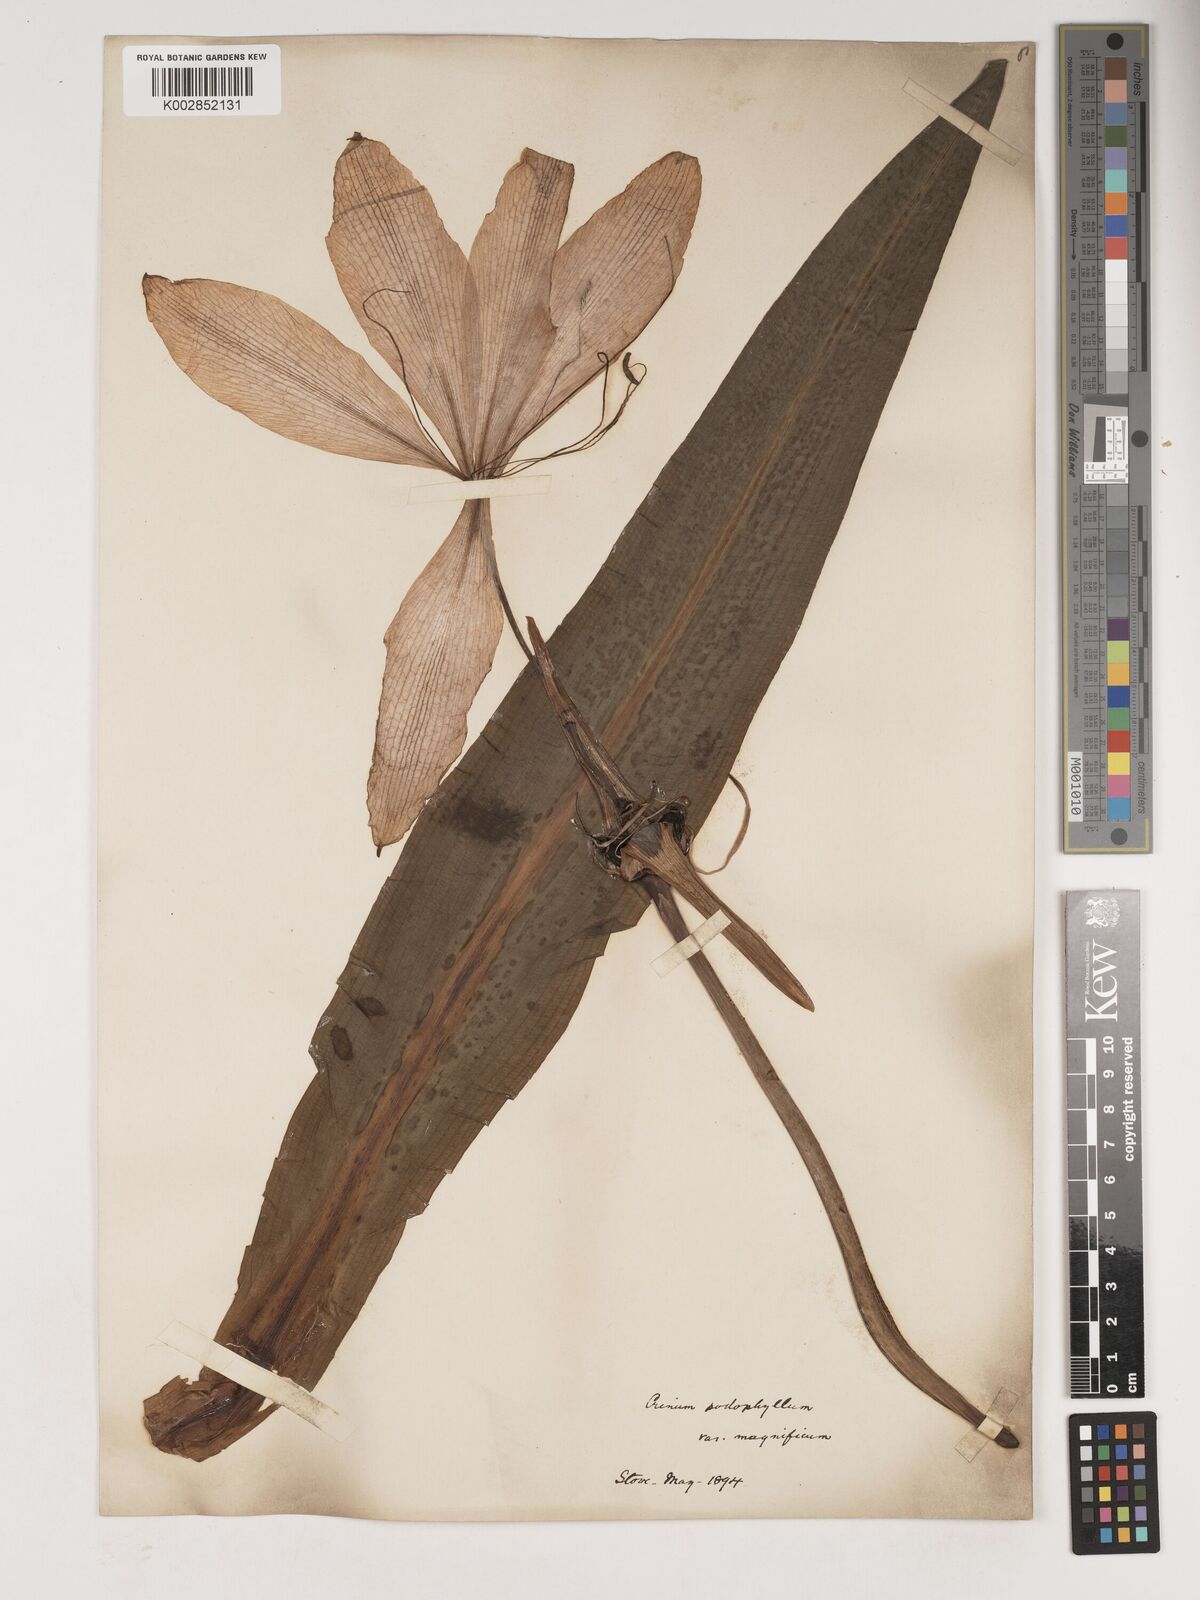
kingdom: Plantae
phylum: Tracheophyta
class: Liliopsida
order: Asparagales
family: Amaryllidaceae
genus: Crinum
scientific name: Crinum jagus
